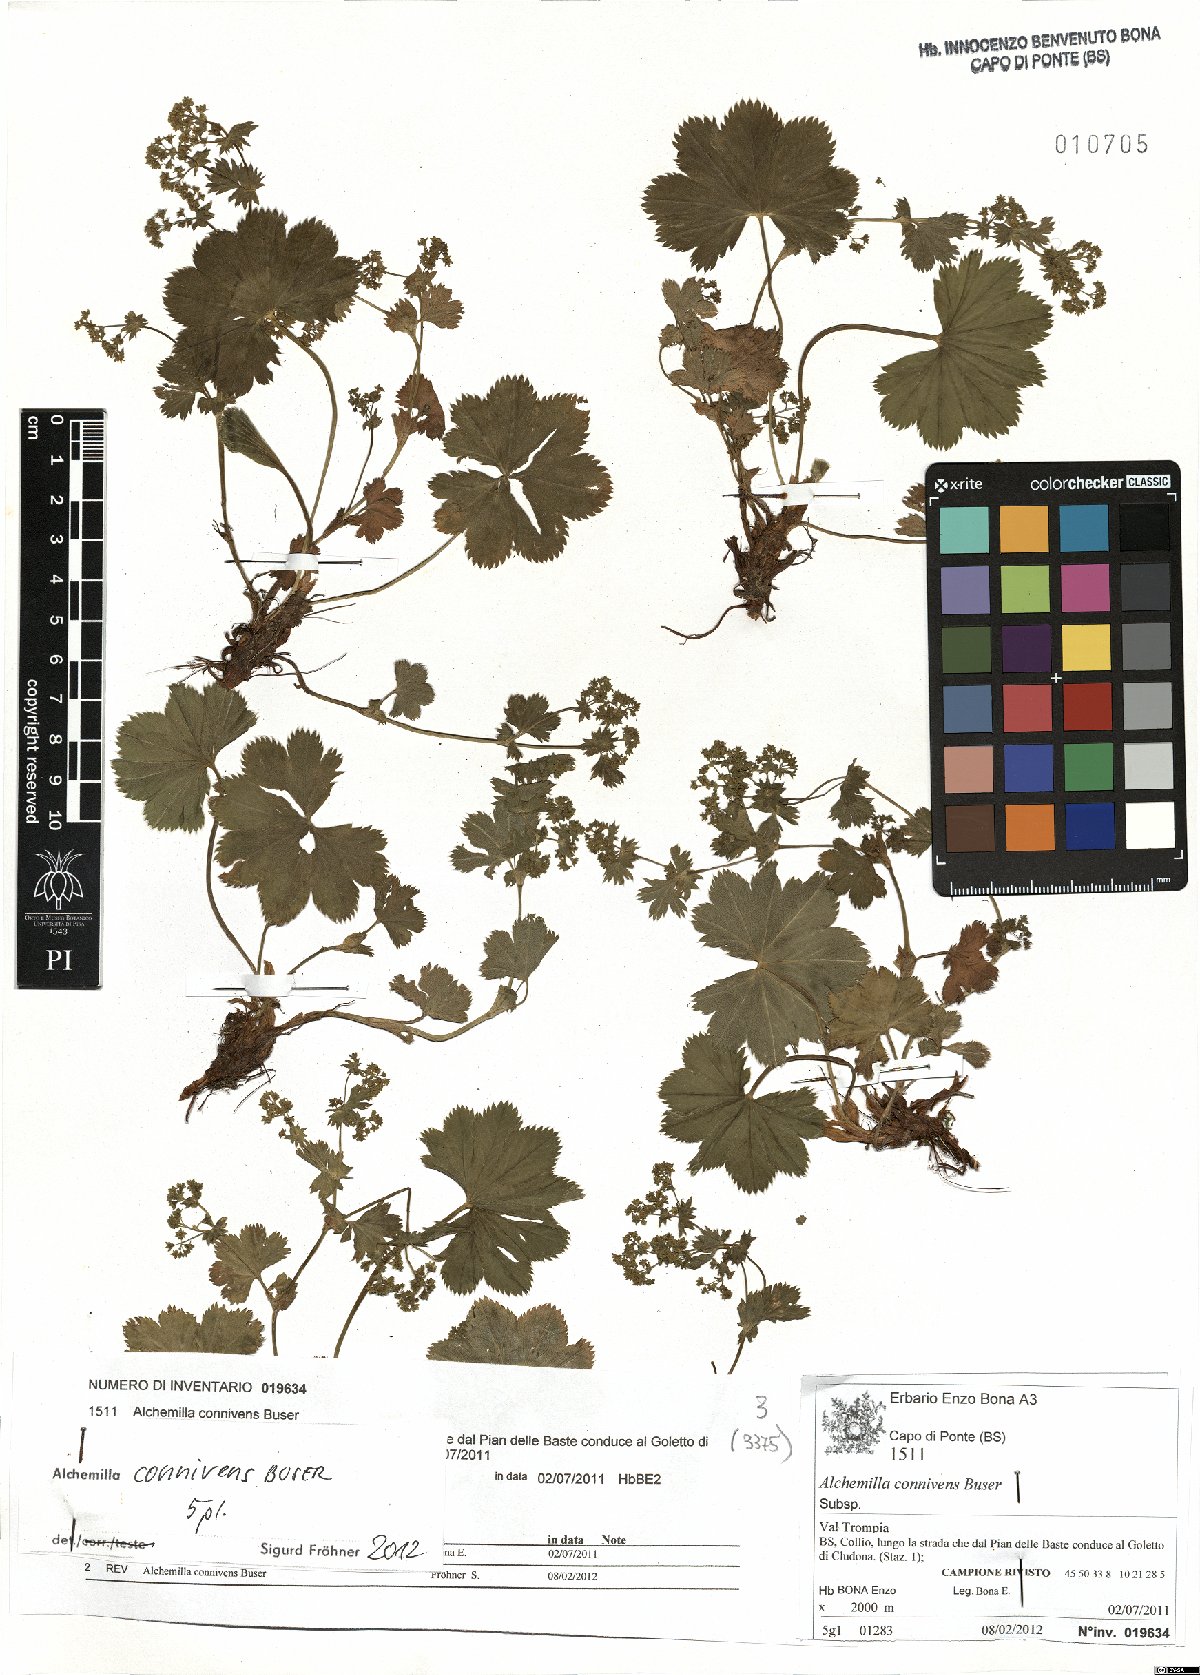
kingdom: Plantae
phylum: Tracheophyta
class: Magnoliopsida
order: Rosales
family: Rosaceae
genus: Alchemilla
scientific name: Alchemilla connivens
